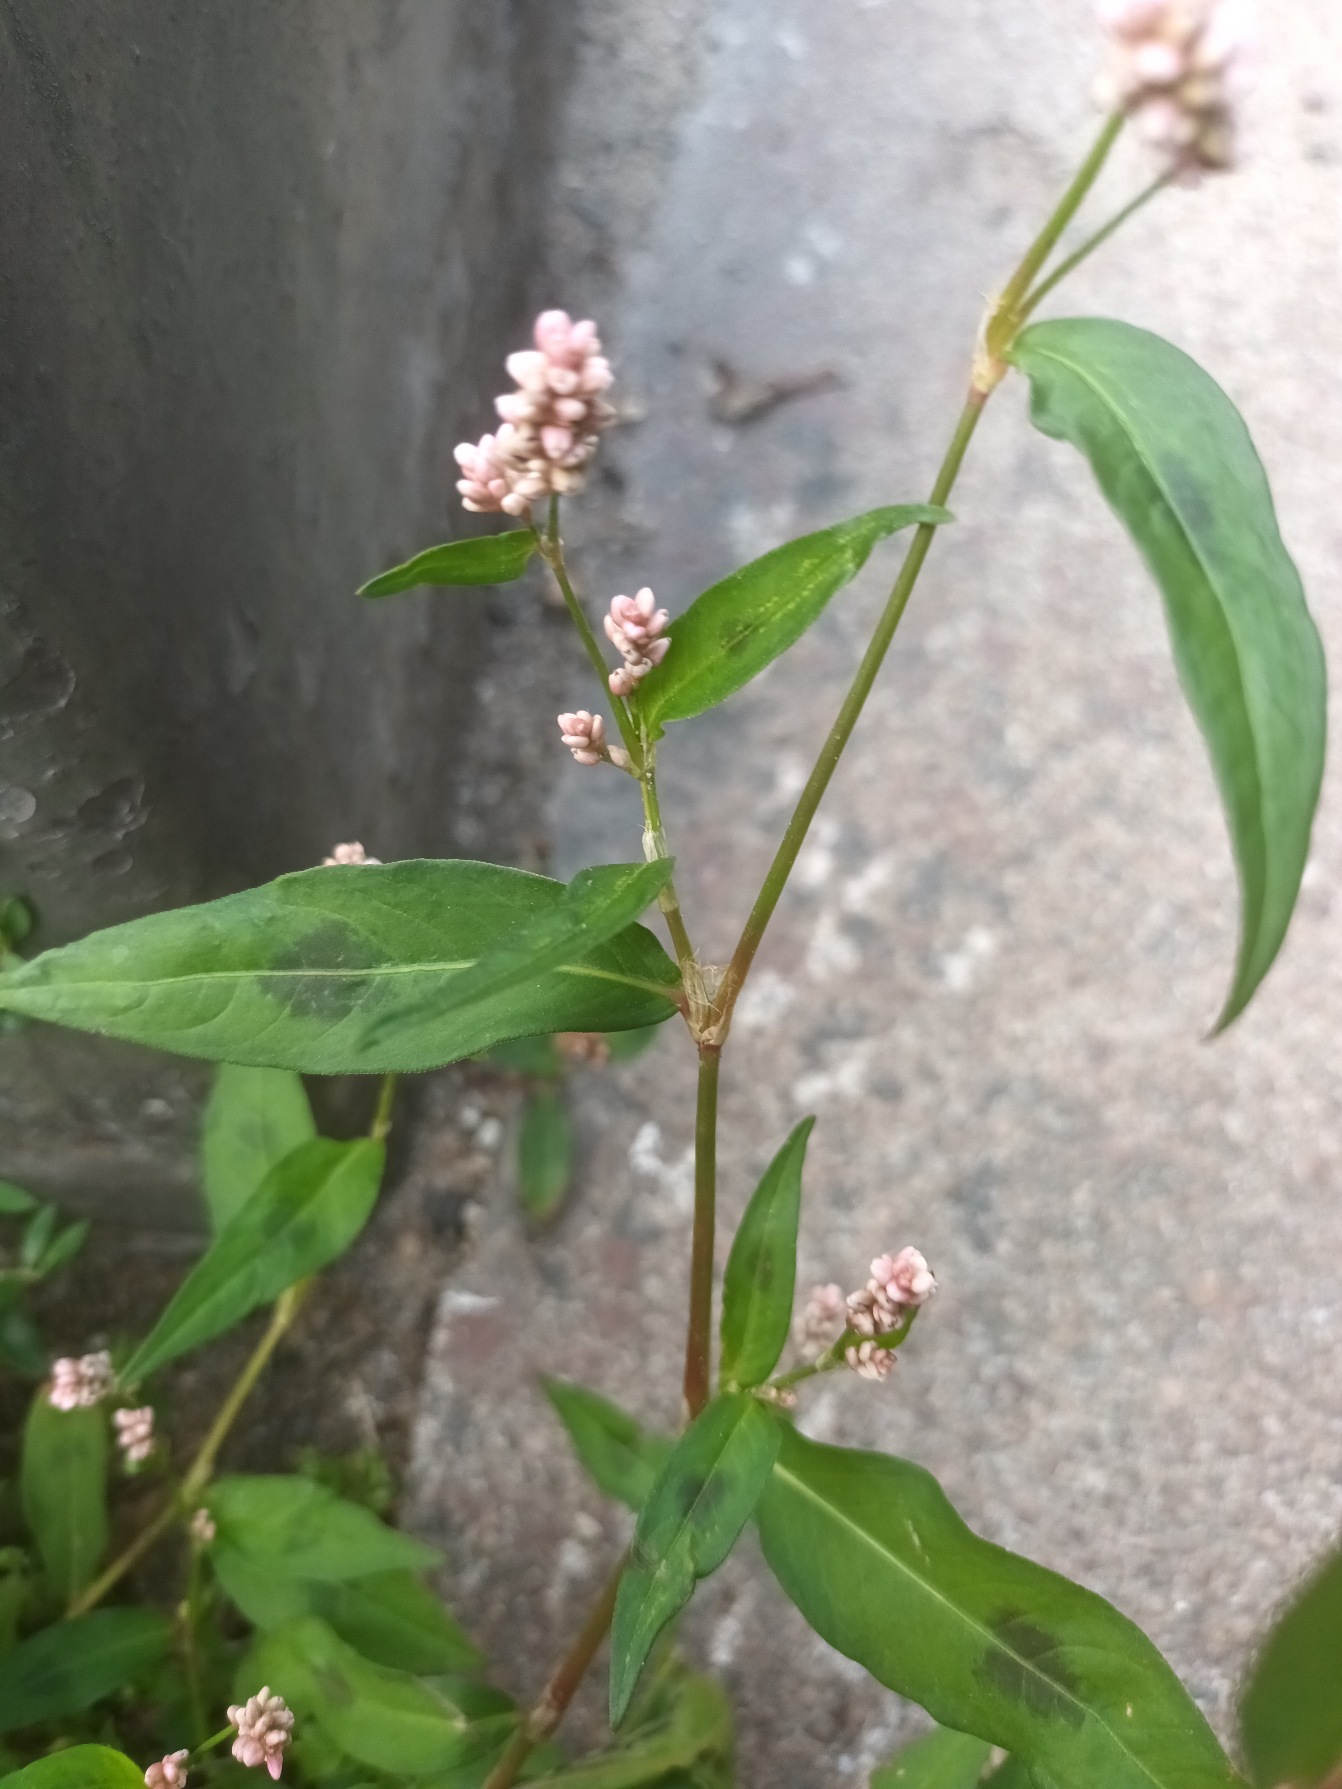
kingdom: Plantae
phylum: Tracheophyta
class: Magnoliopsida
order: Caryophyllales
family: Polygonaceae
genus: Persicaria
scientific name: Persicaria maculosa
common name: Fersken-pileurt
